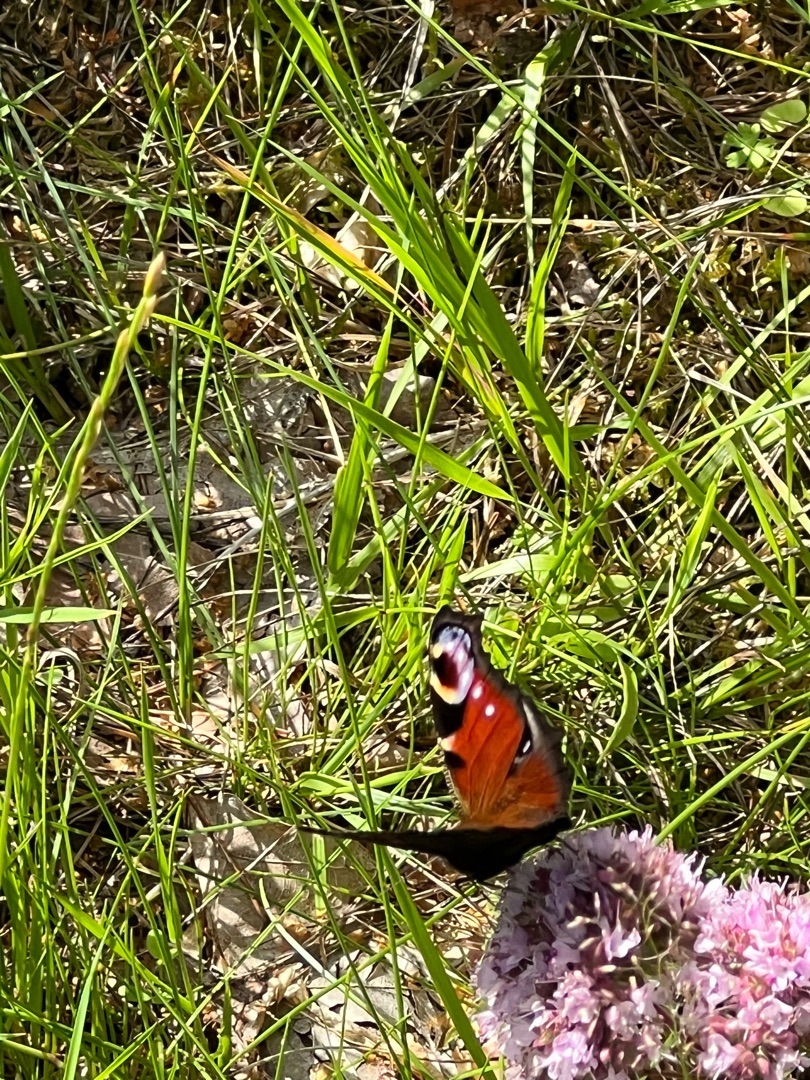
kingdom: Animalia
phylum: Arthropoda
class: Insecta
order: Lepidoptera
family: Nymphalidae
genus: Aglais
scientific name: Aglais io
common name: Dagpåfugleøje
